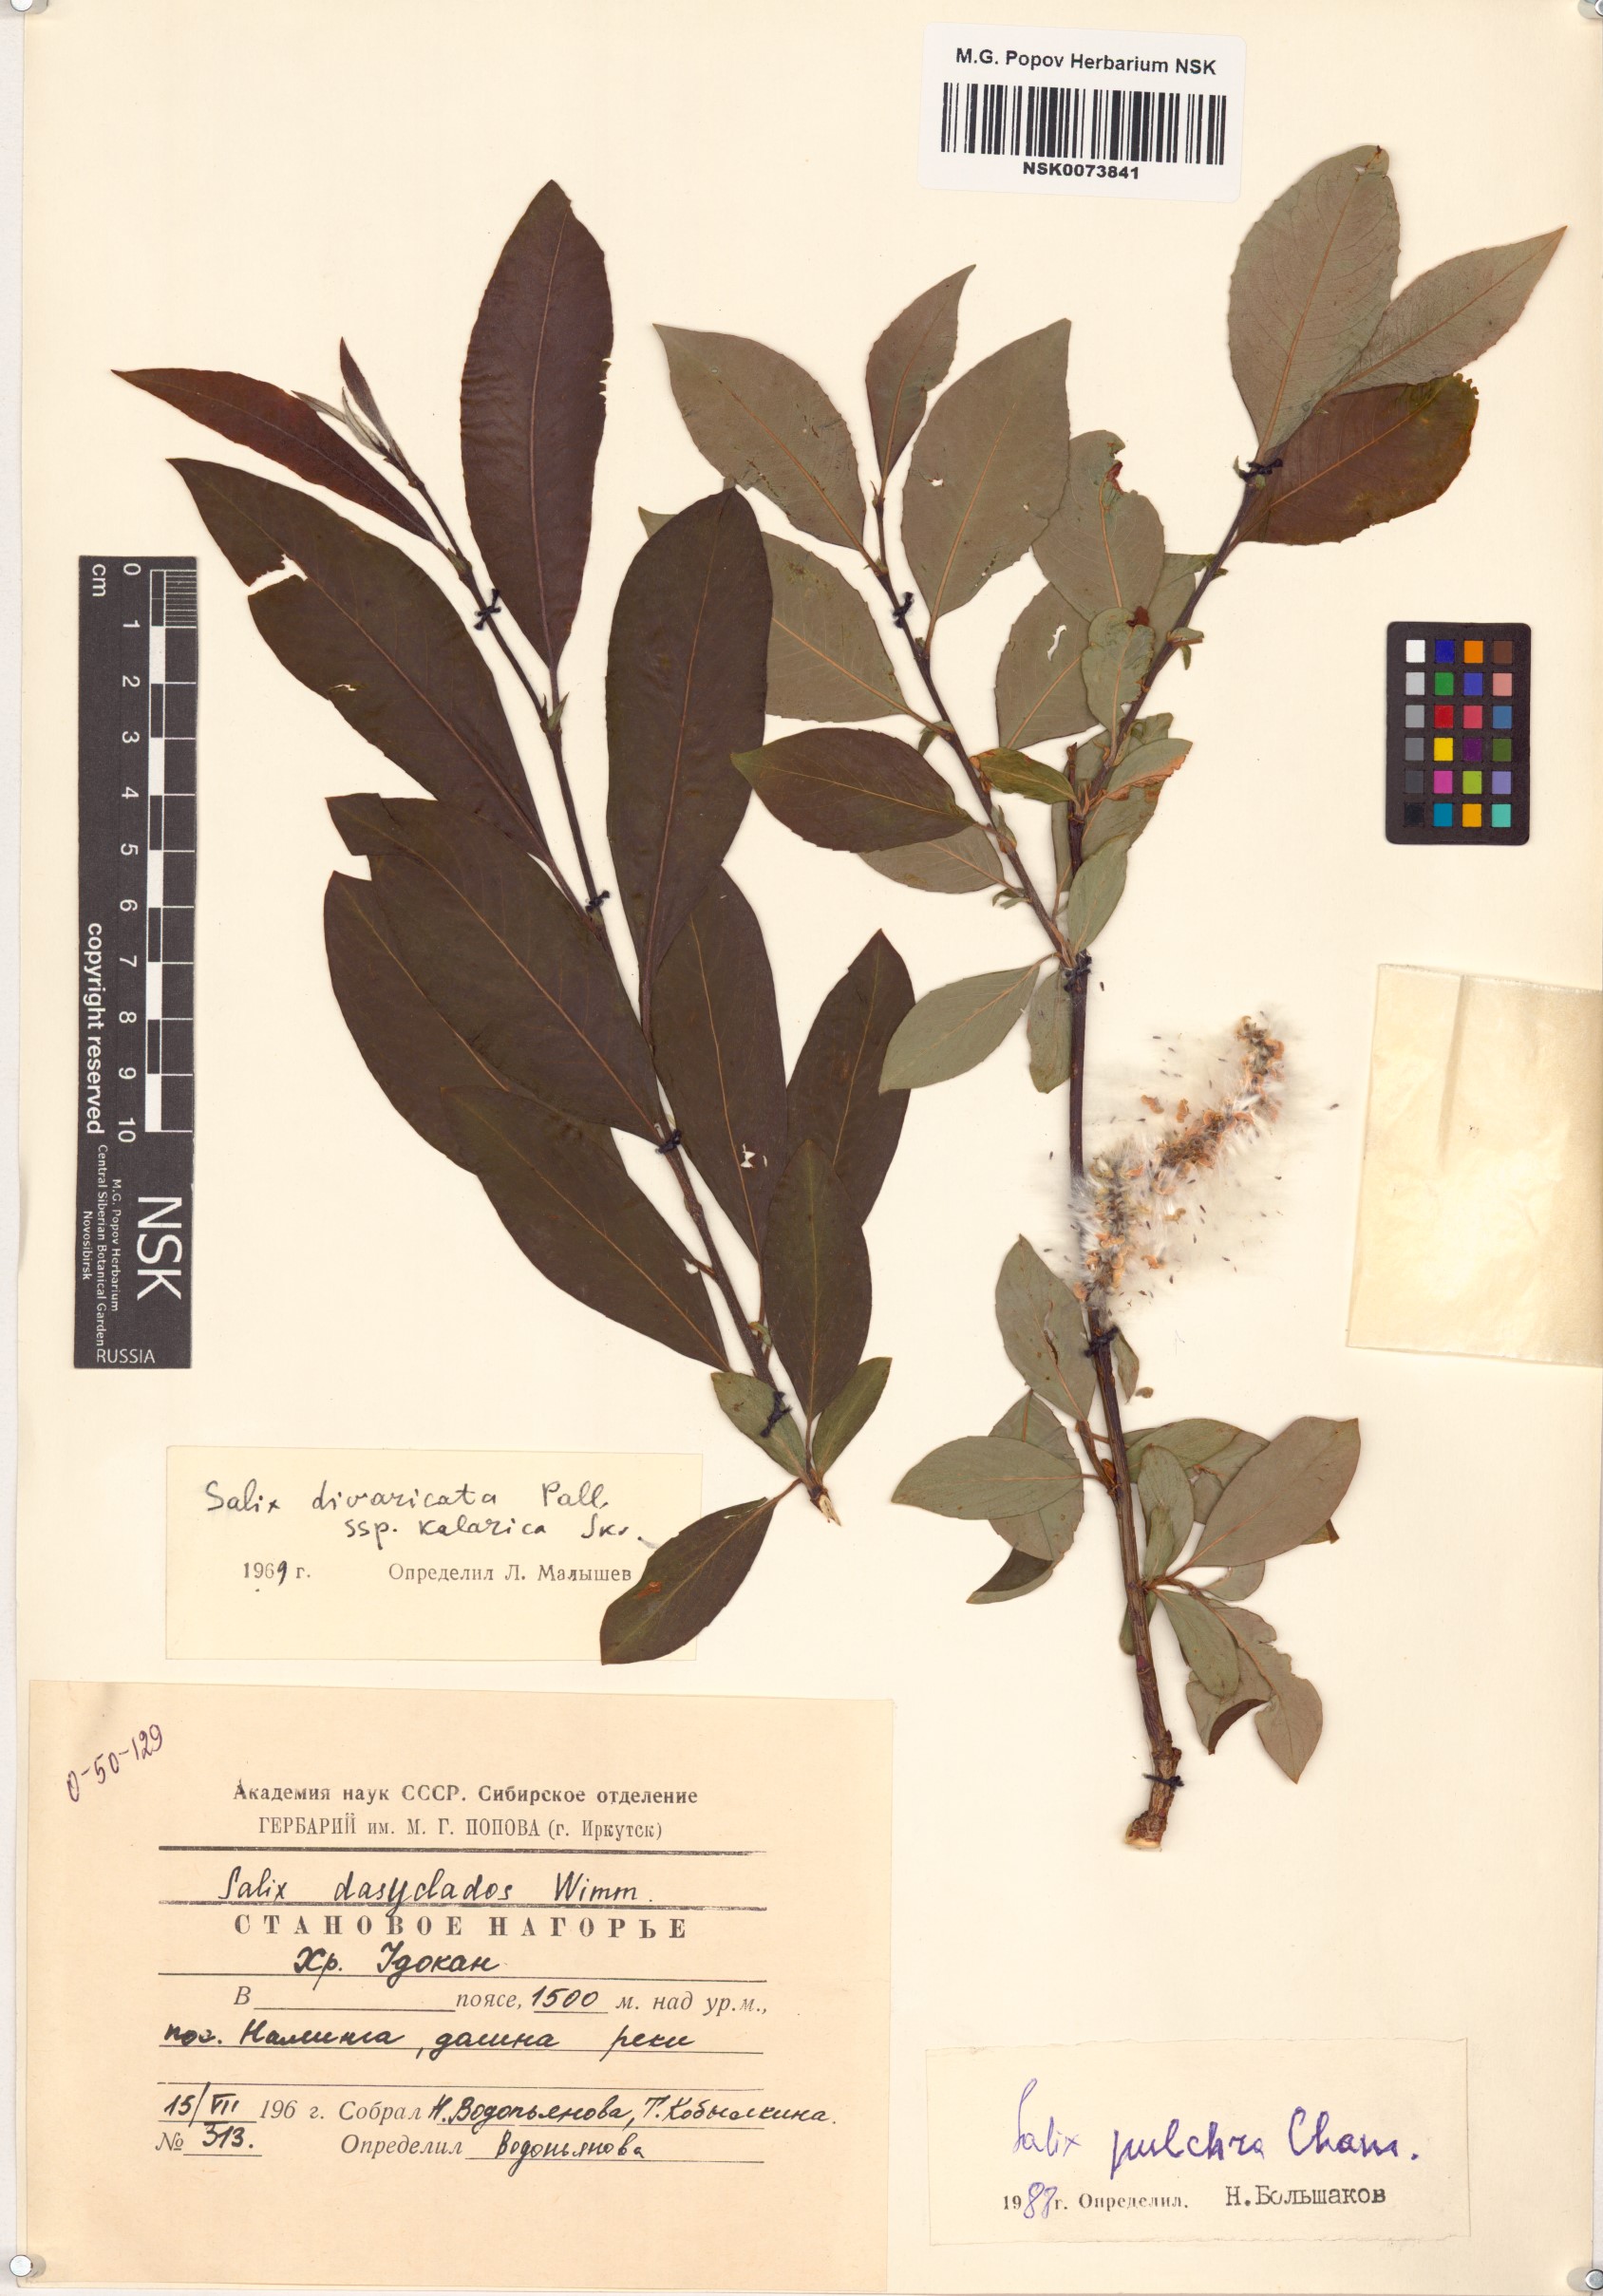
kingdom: Plantae
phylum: Tracheophyta
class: Magnoliopsida
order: Malpighiales
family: Salicaceae
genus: Salix
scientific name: Salix pulchra
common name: Diamond-leaved willow
